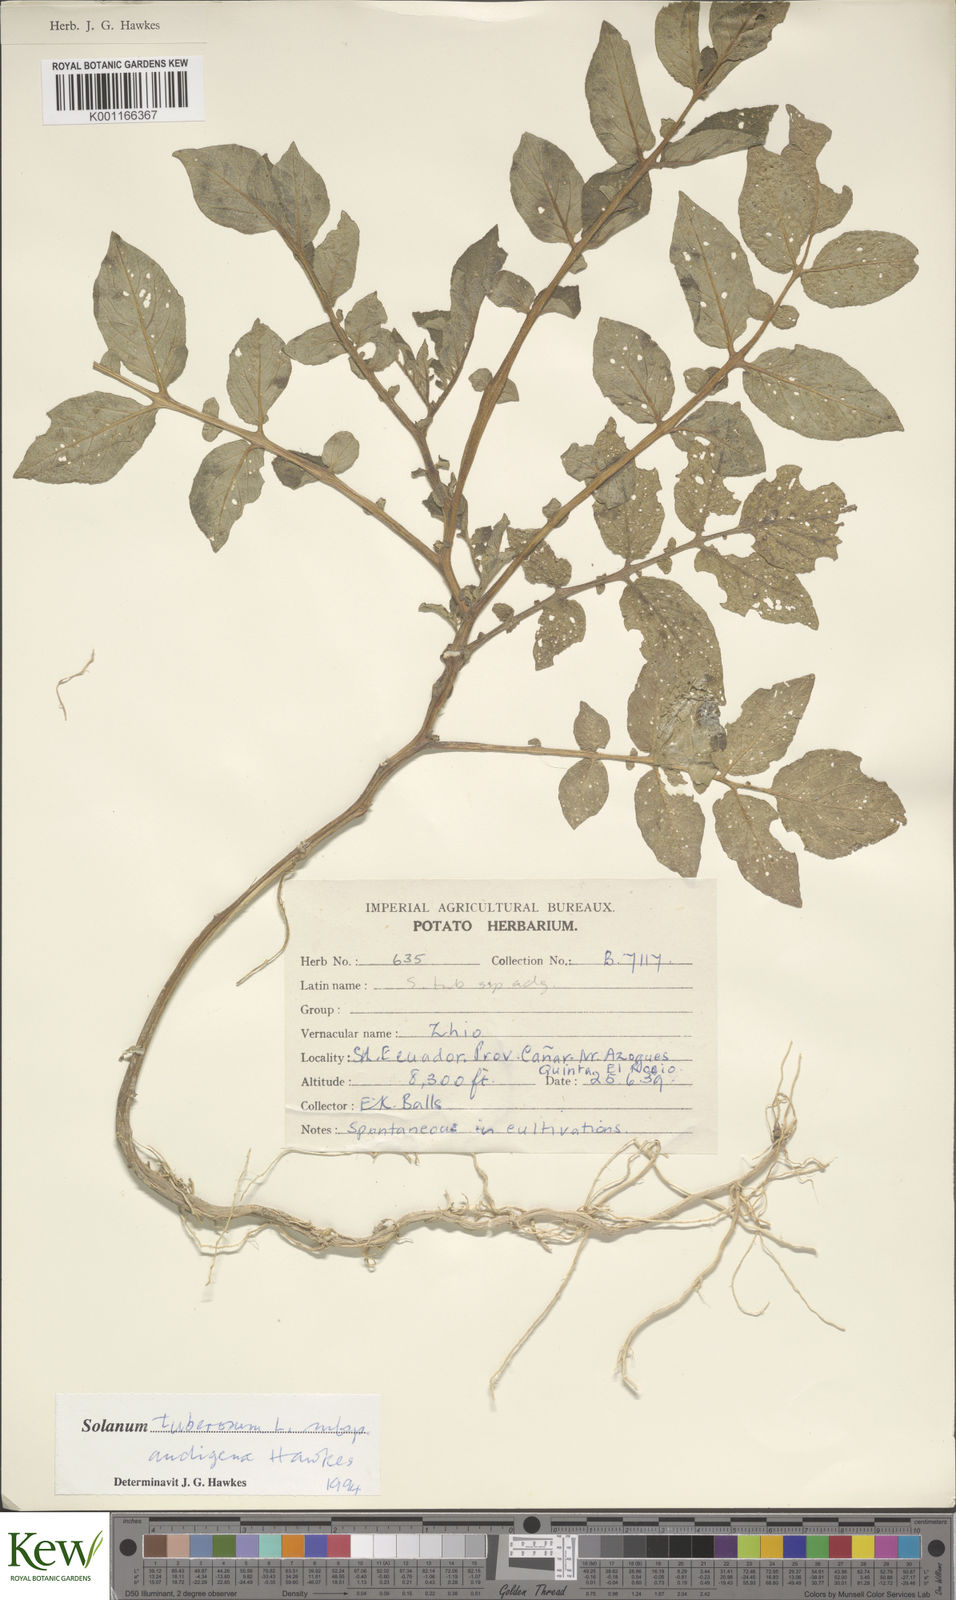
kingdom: Plantae
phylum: Tracheophyta
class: Magnoliopsida
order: Solanales
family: Solanaceae
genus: Solanum
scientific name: Solanum tuberosum
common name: Potato
